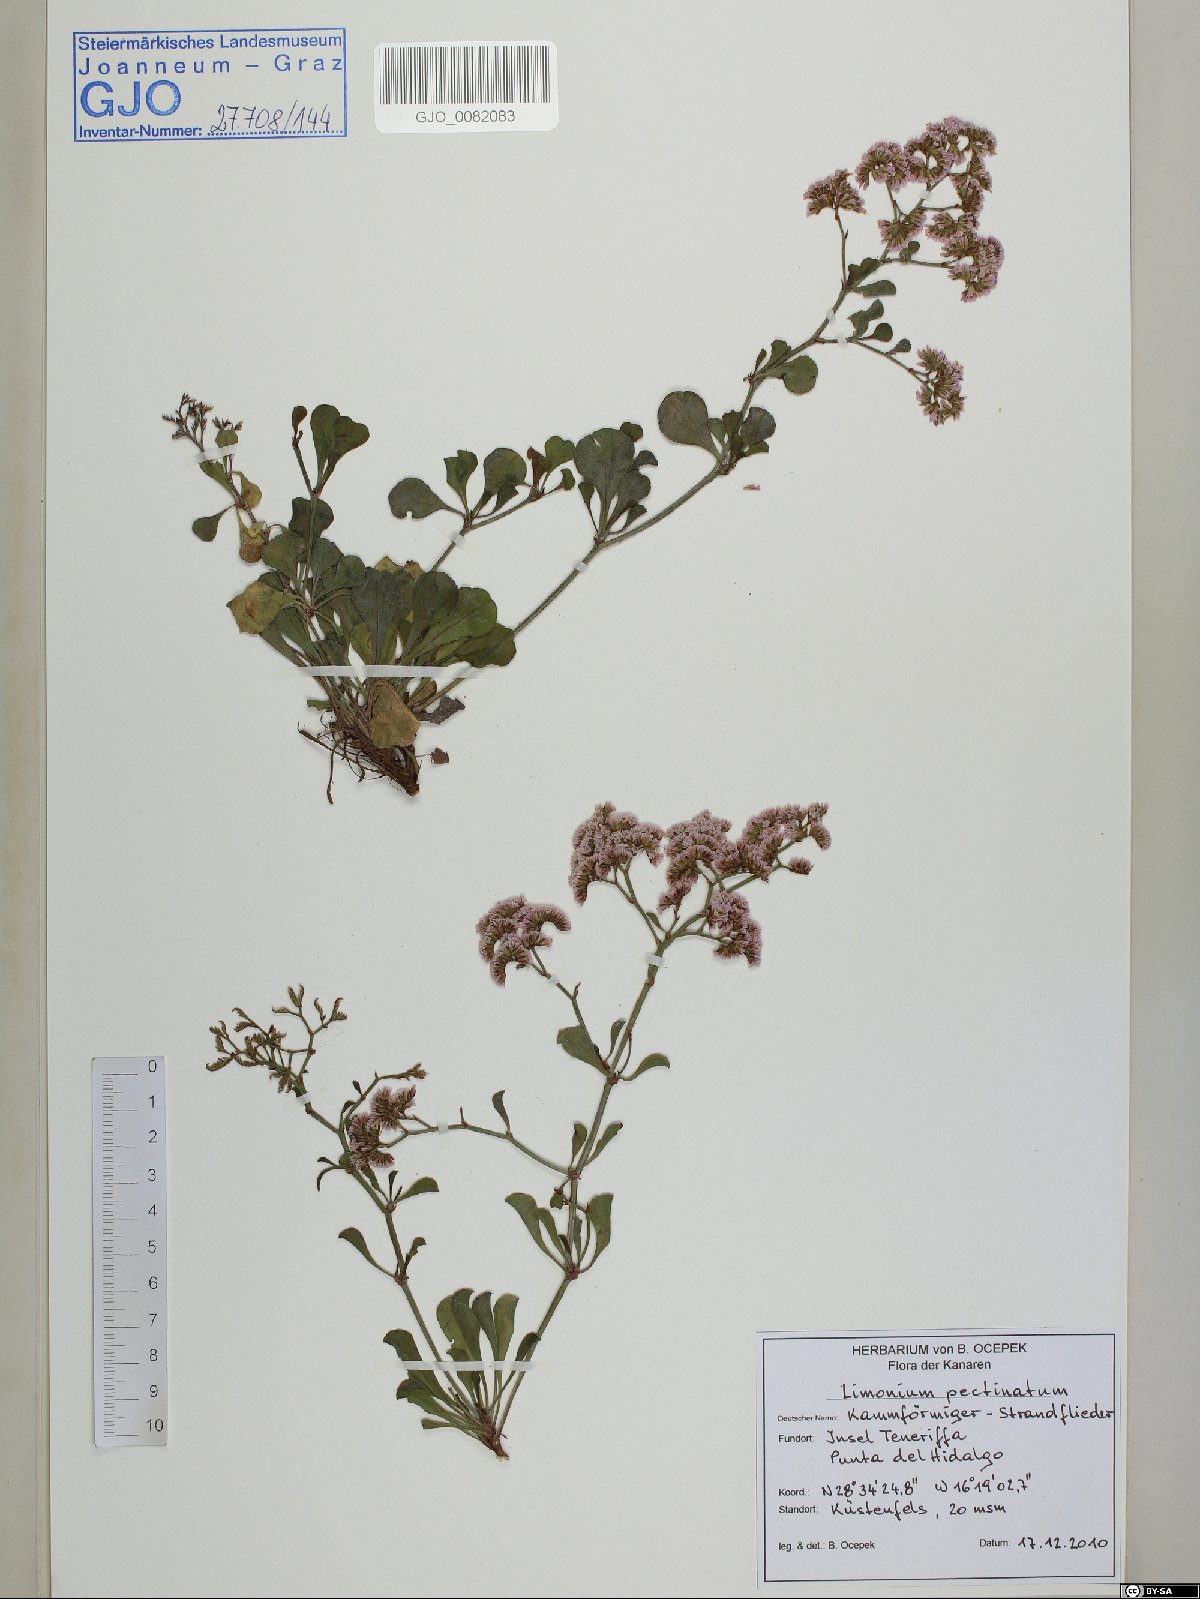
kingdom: Plantae
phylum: Tracheophyta
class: Magnoliopsida
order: Caryophyllales
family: Plumbaginaceae
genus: Limonium
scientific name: Limonium pectinatum
